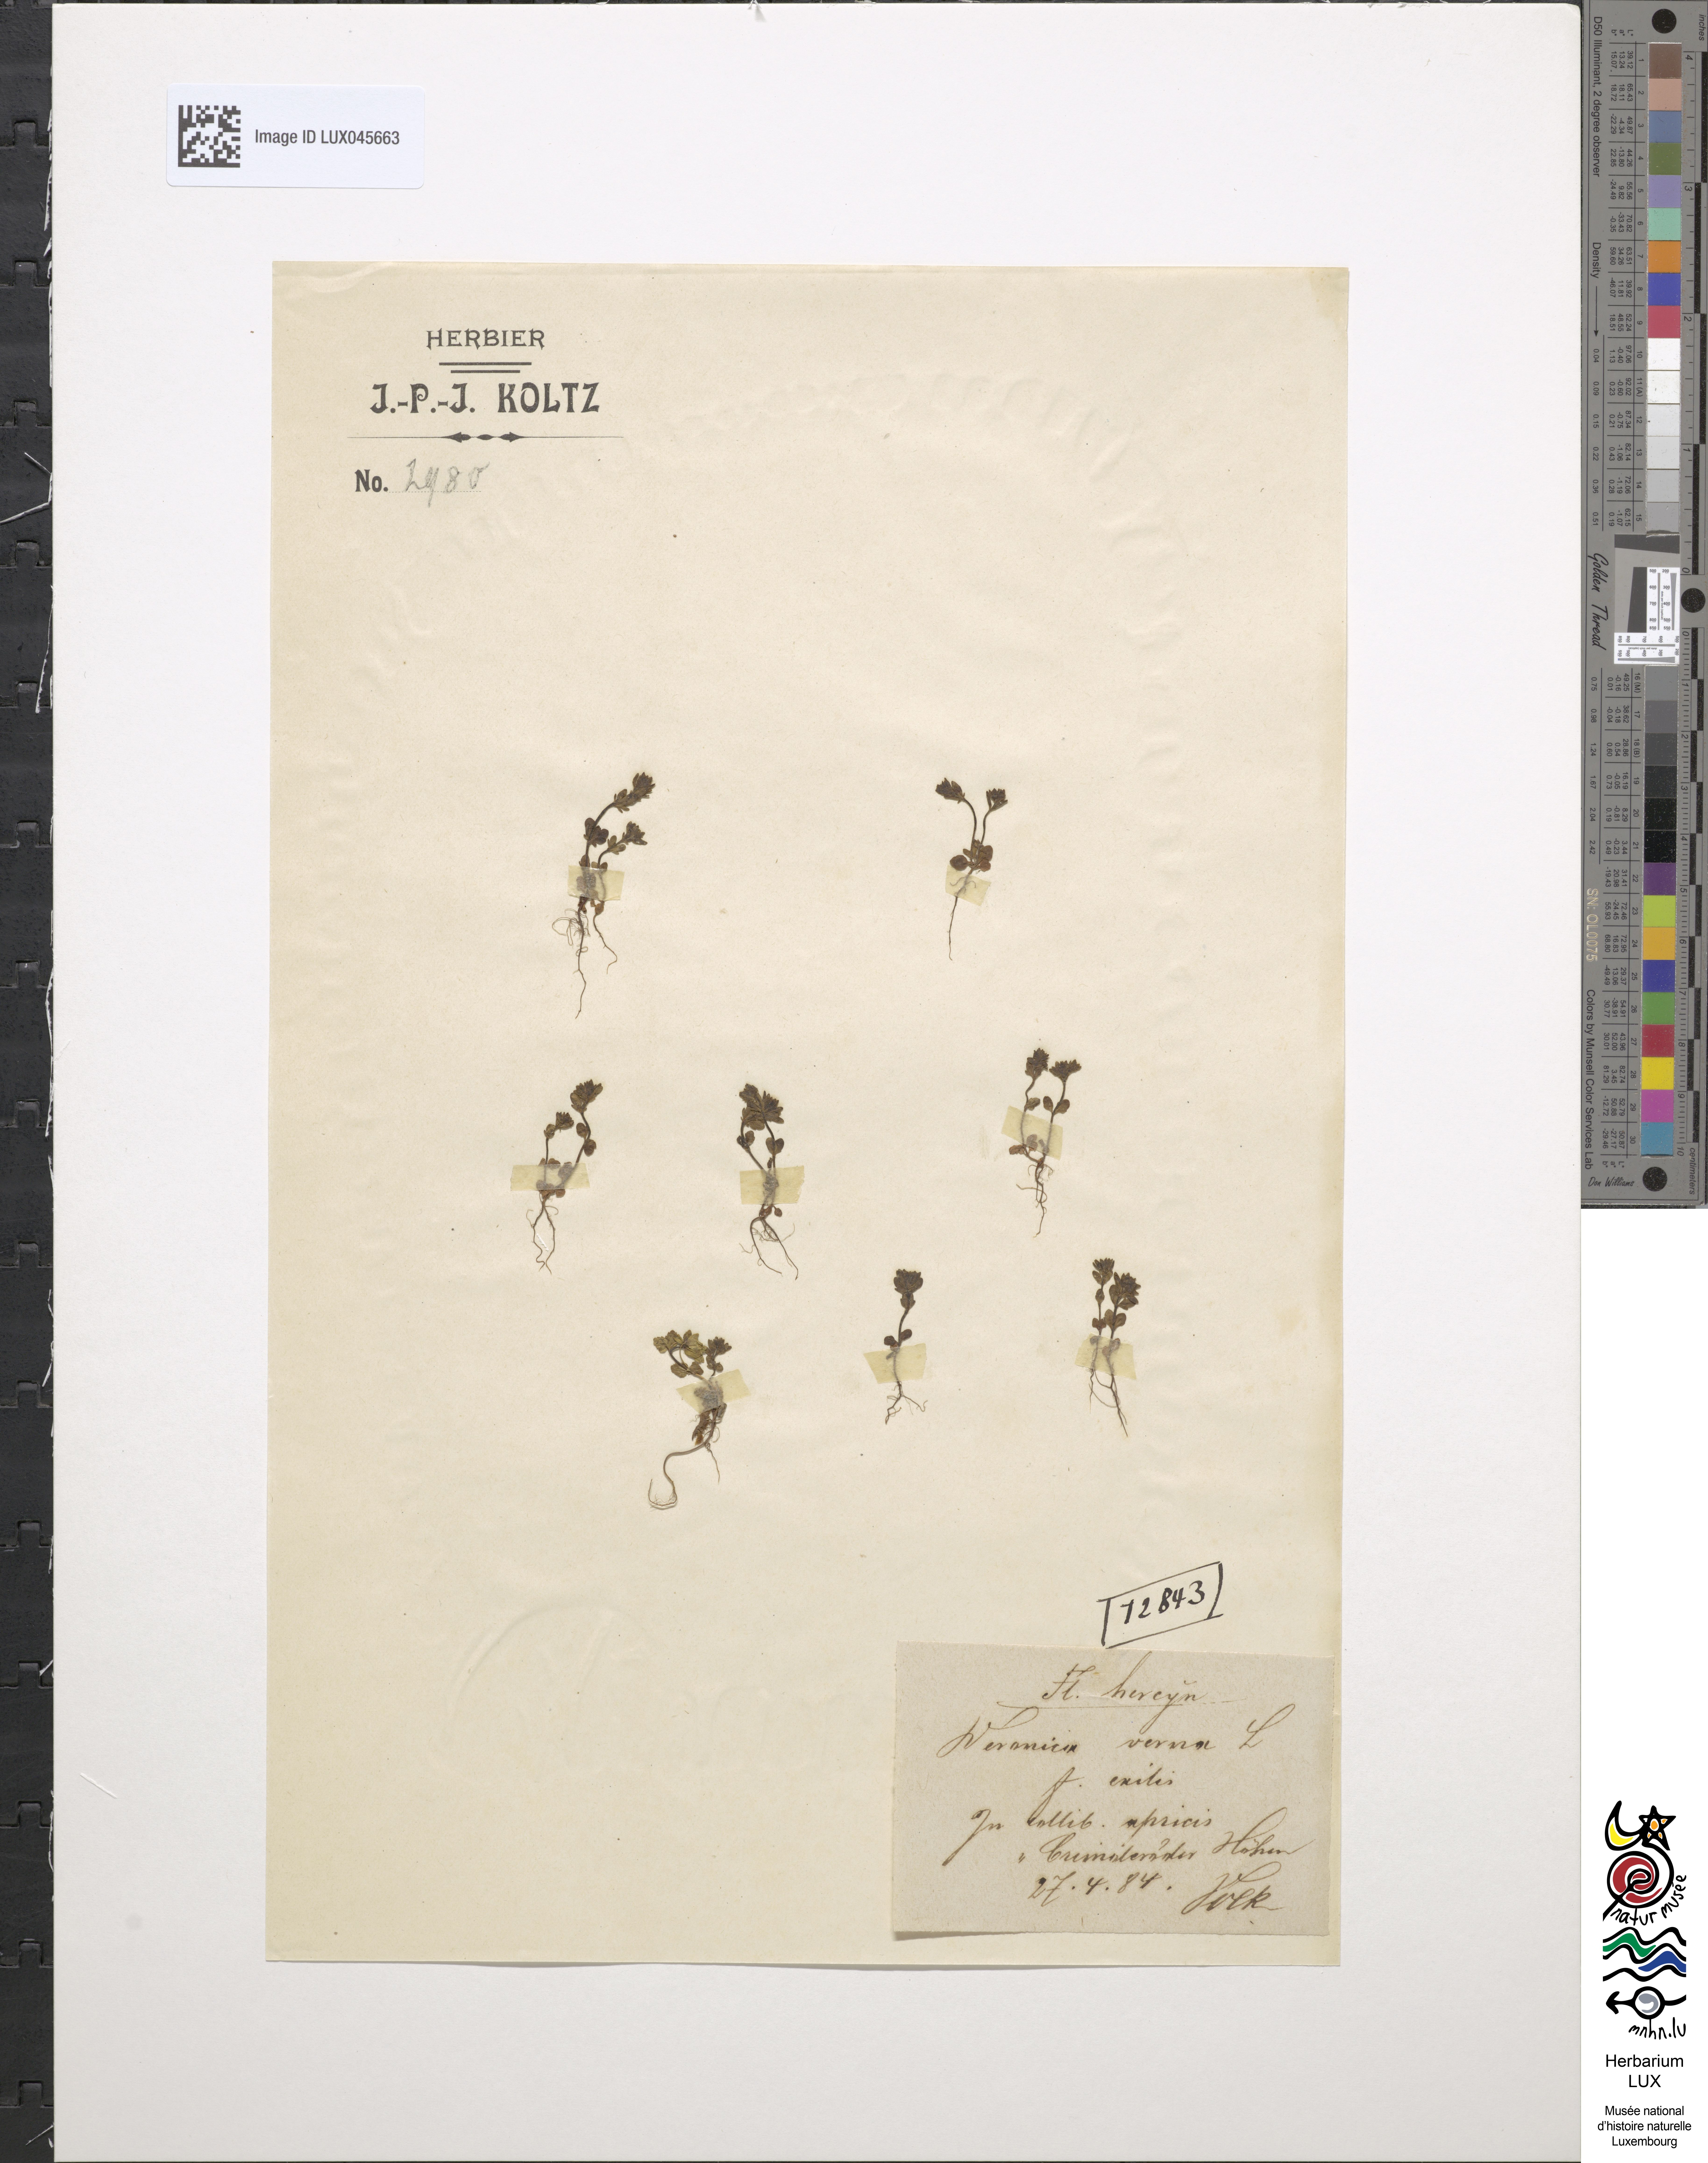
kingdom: Plantae
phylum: Tracheophyta
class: Magnoliopsida
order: Lamiales
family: Plantaginaceae
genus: Veronica
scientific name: Veronica verna
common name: Spring speedwell
